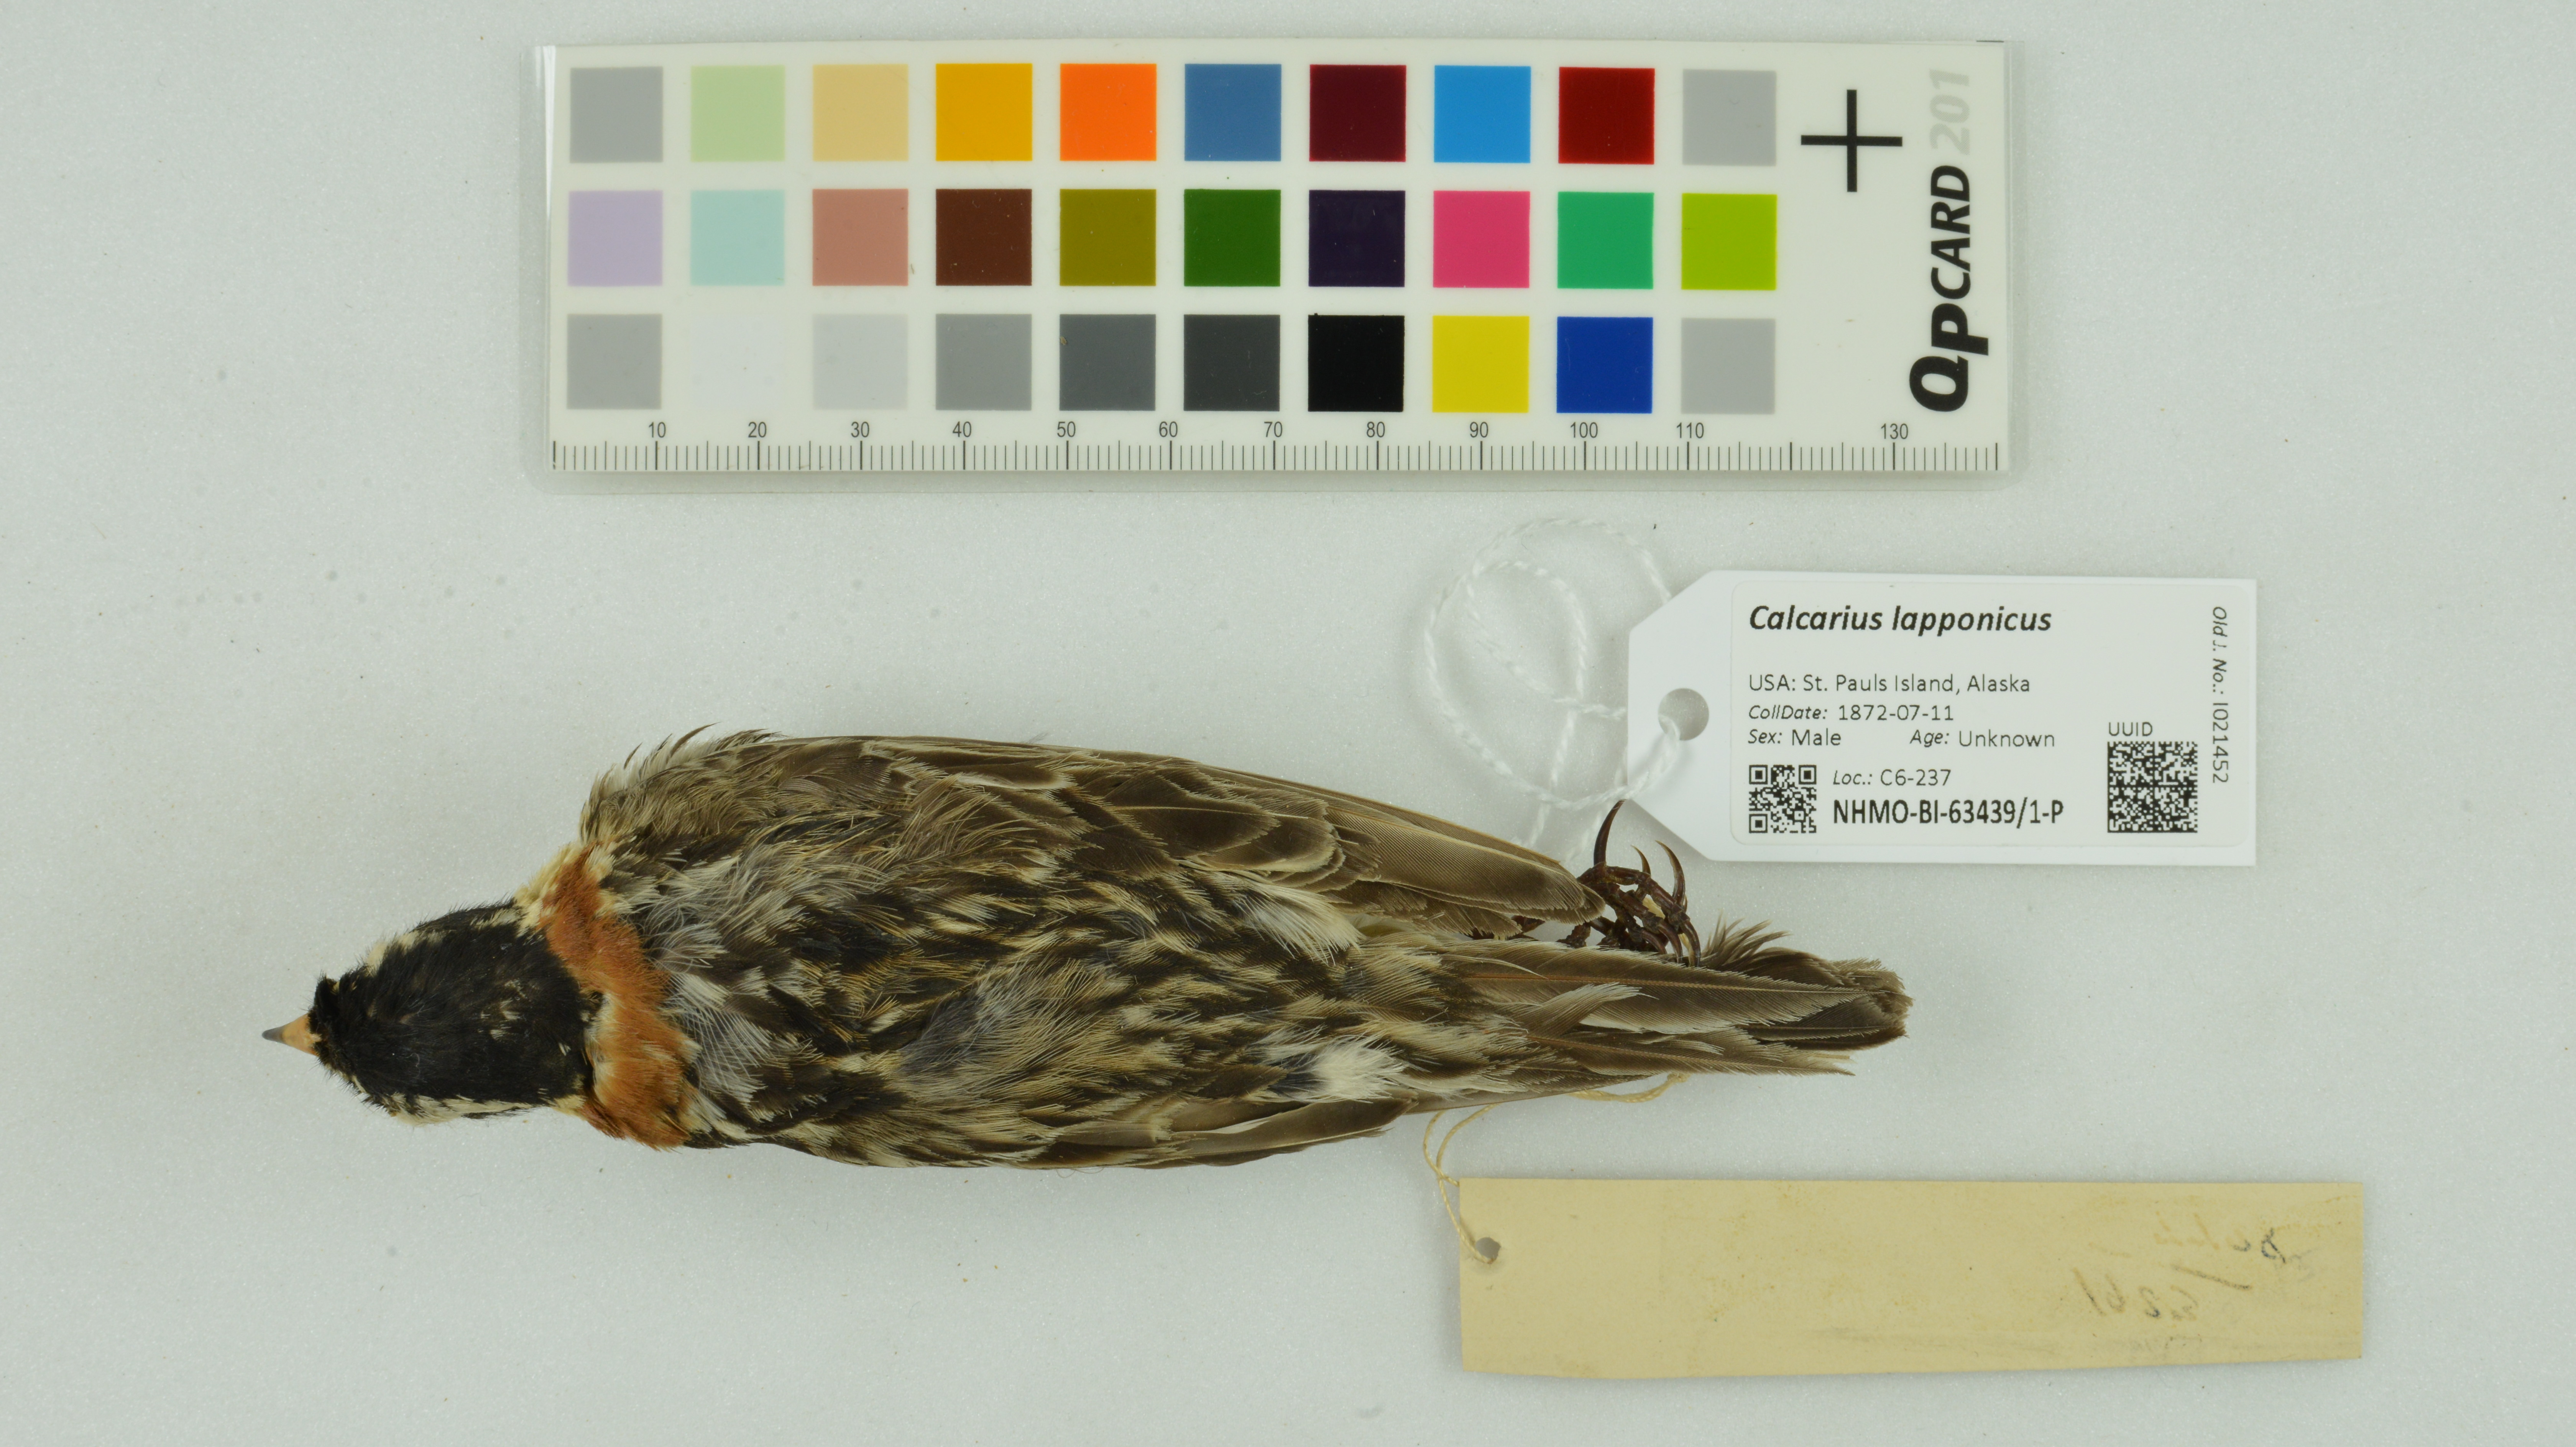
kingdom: Animalia
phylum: Chordata
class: Aves
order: Passeriformes
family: Calcariidae
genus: Calcarius
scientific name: Calcarius lapponicus
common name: Lapland longspur
